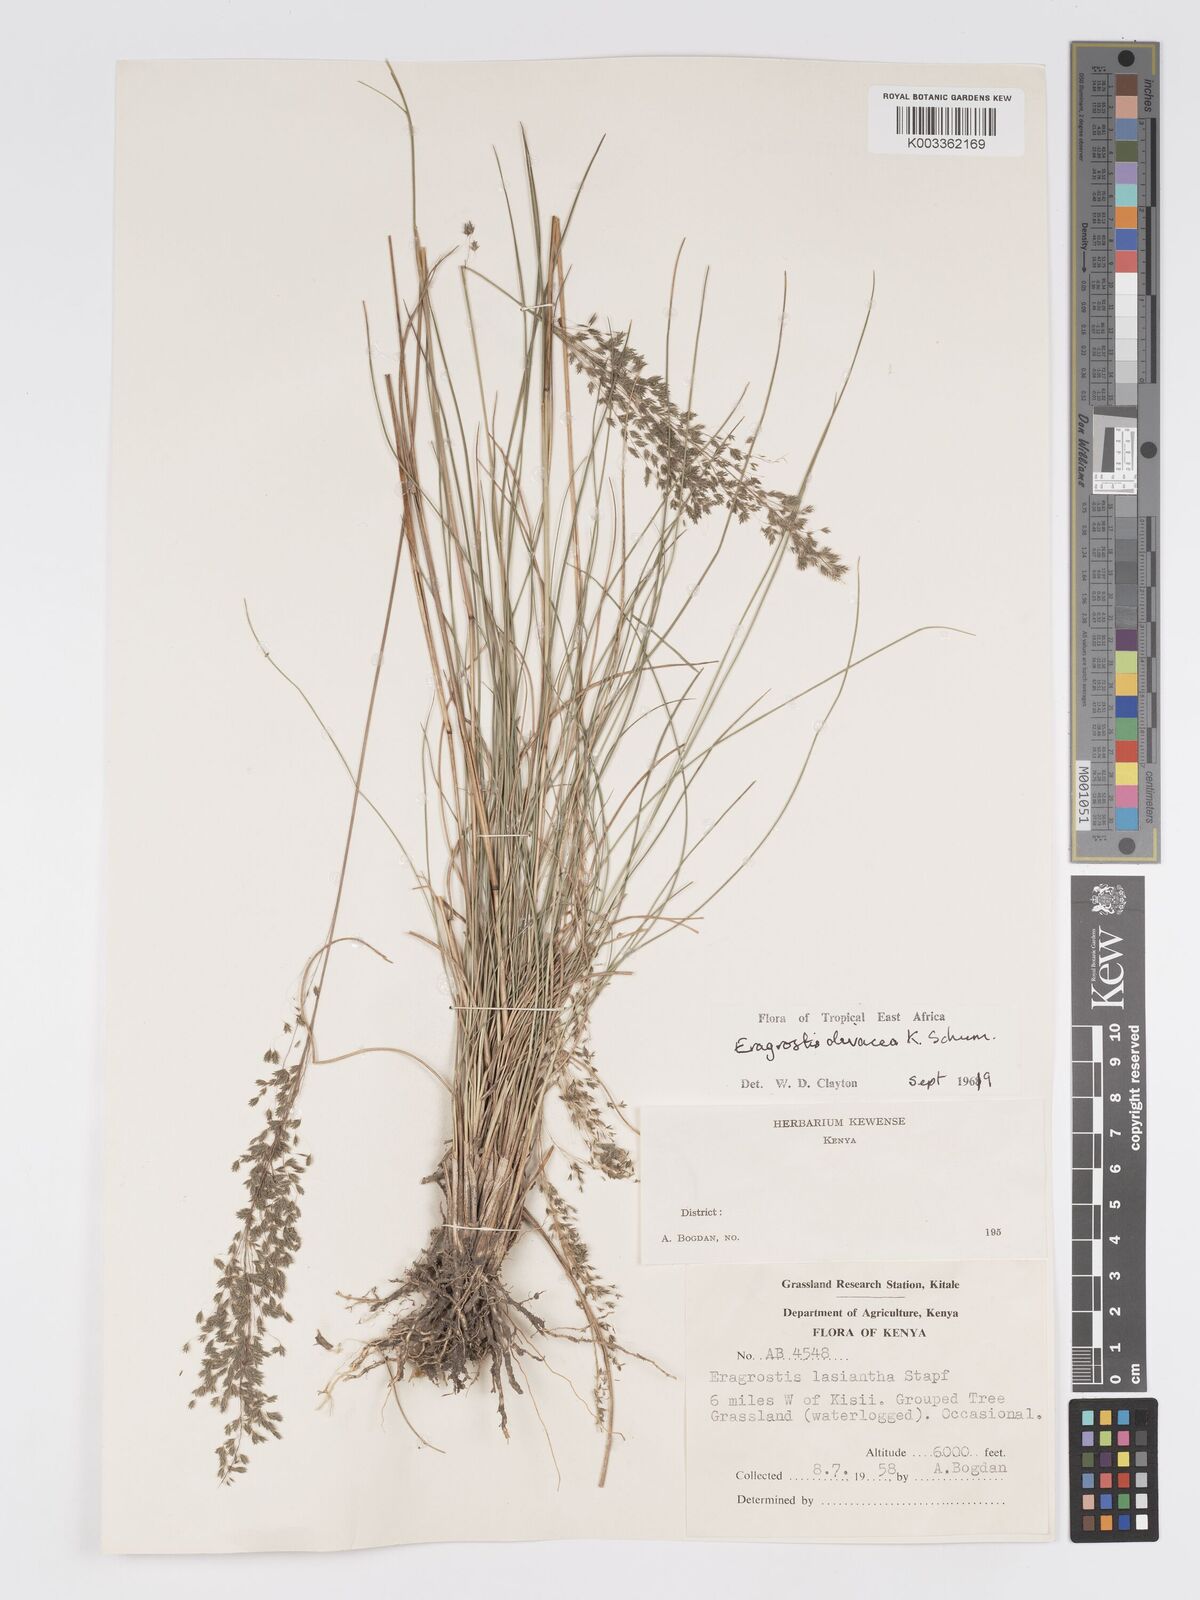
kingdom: Plantae
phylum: Tracheophyta
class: Liliopsida
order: Poales
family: Poaceae
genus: Eragrostis
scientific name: Eragrostis olivacea
